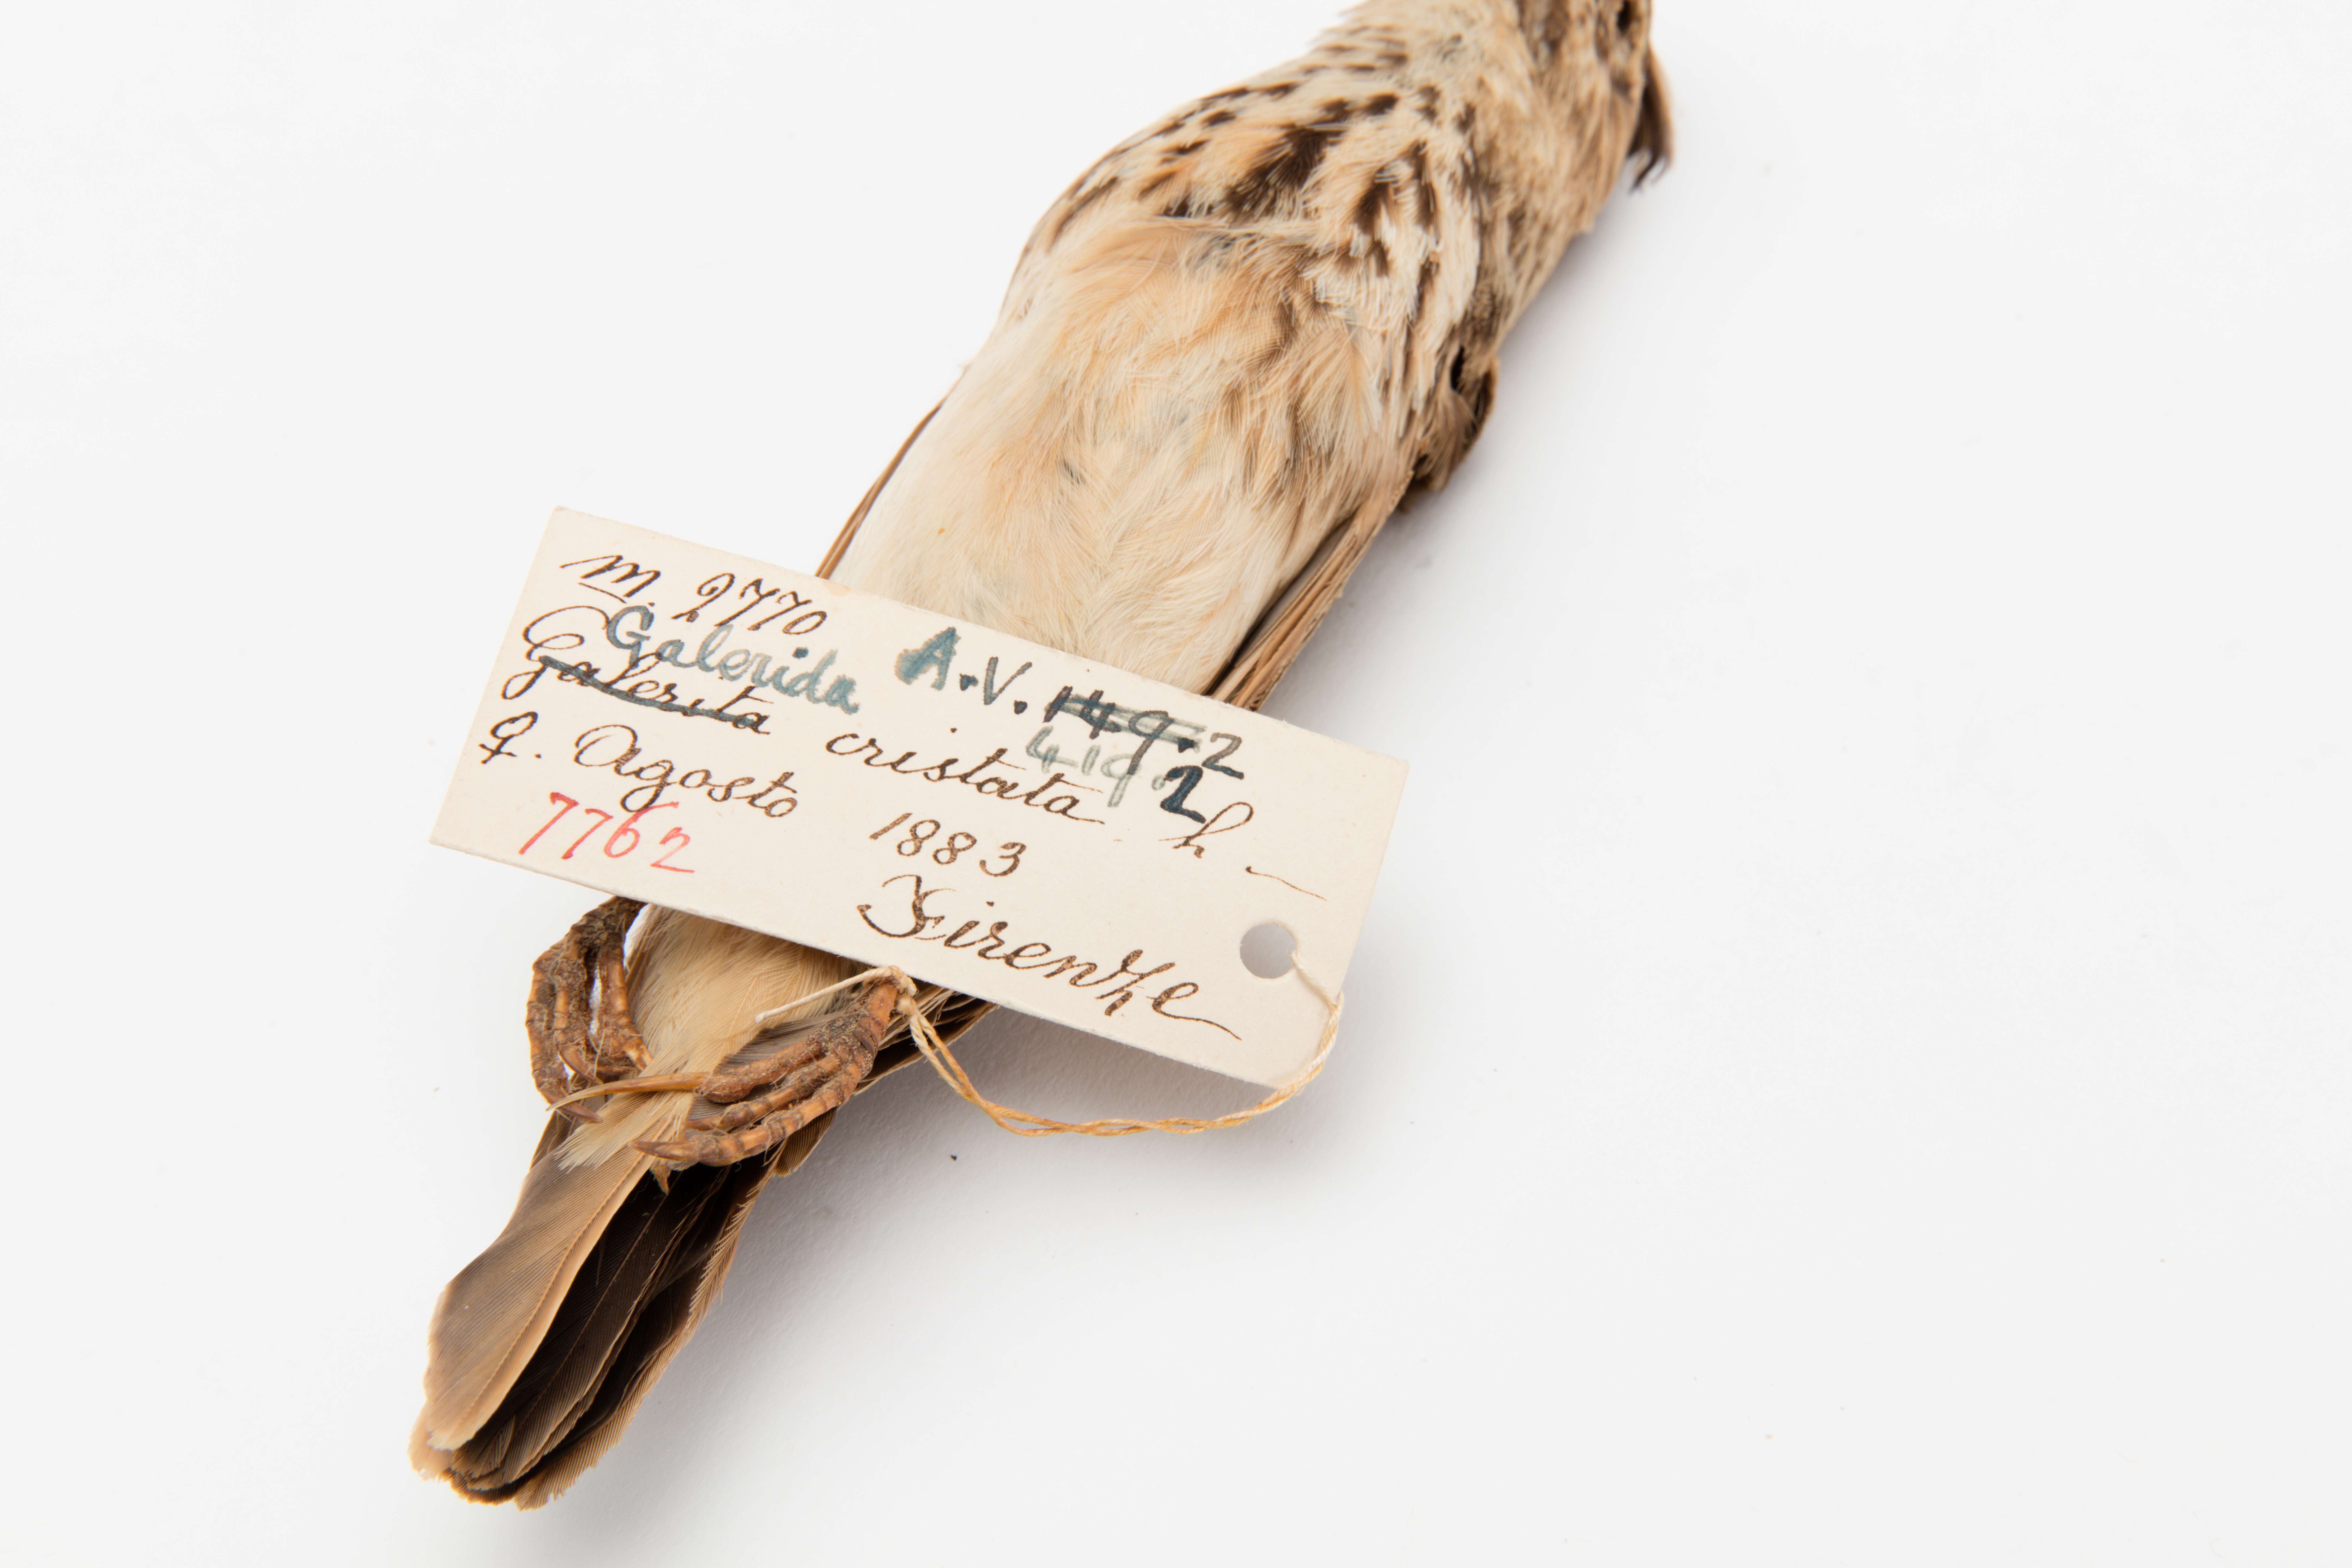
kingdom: Animalia
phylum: Chordata
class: Aves
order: Passeriformes
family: Alaudidae
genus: Galerida
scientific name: Galerida cristata
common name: Crested lark
